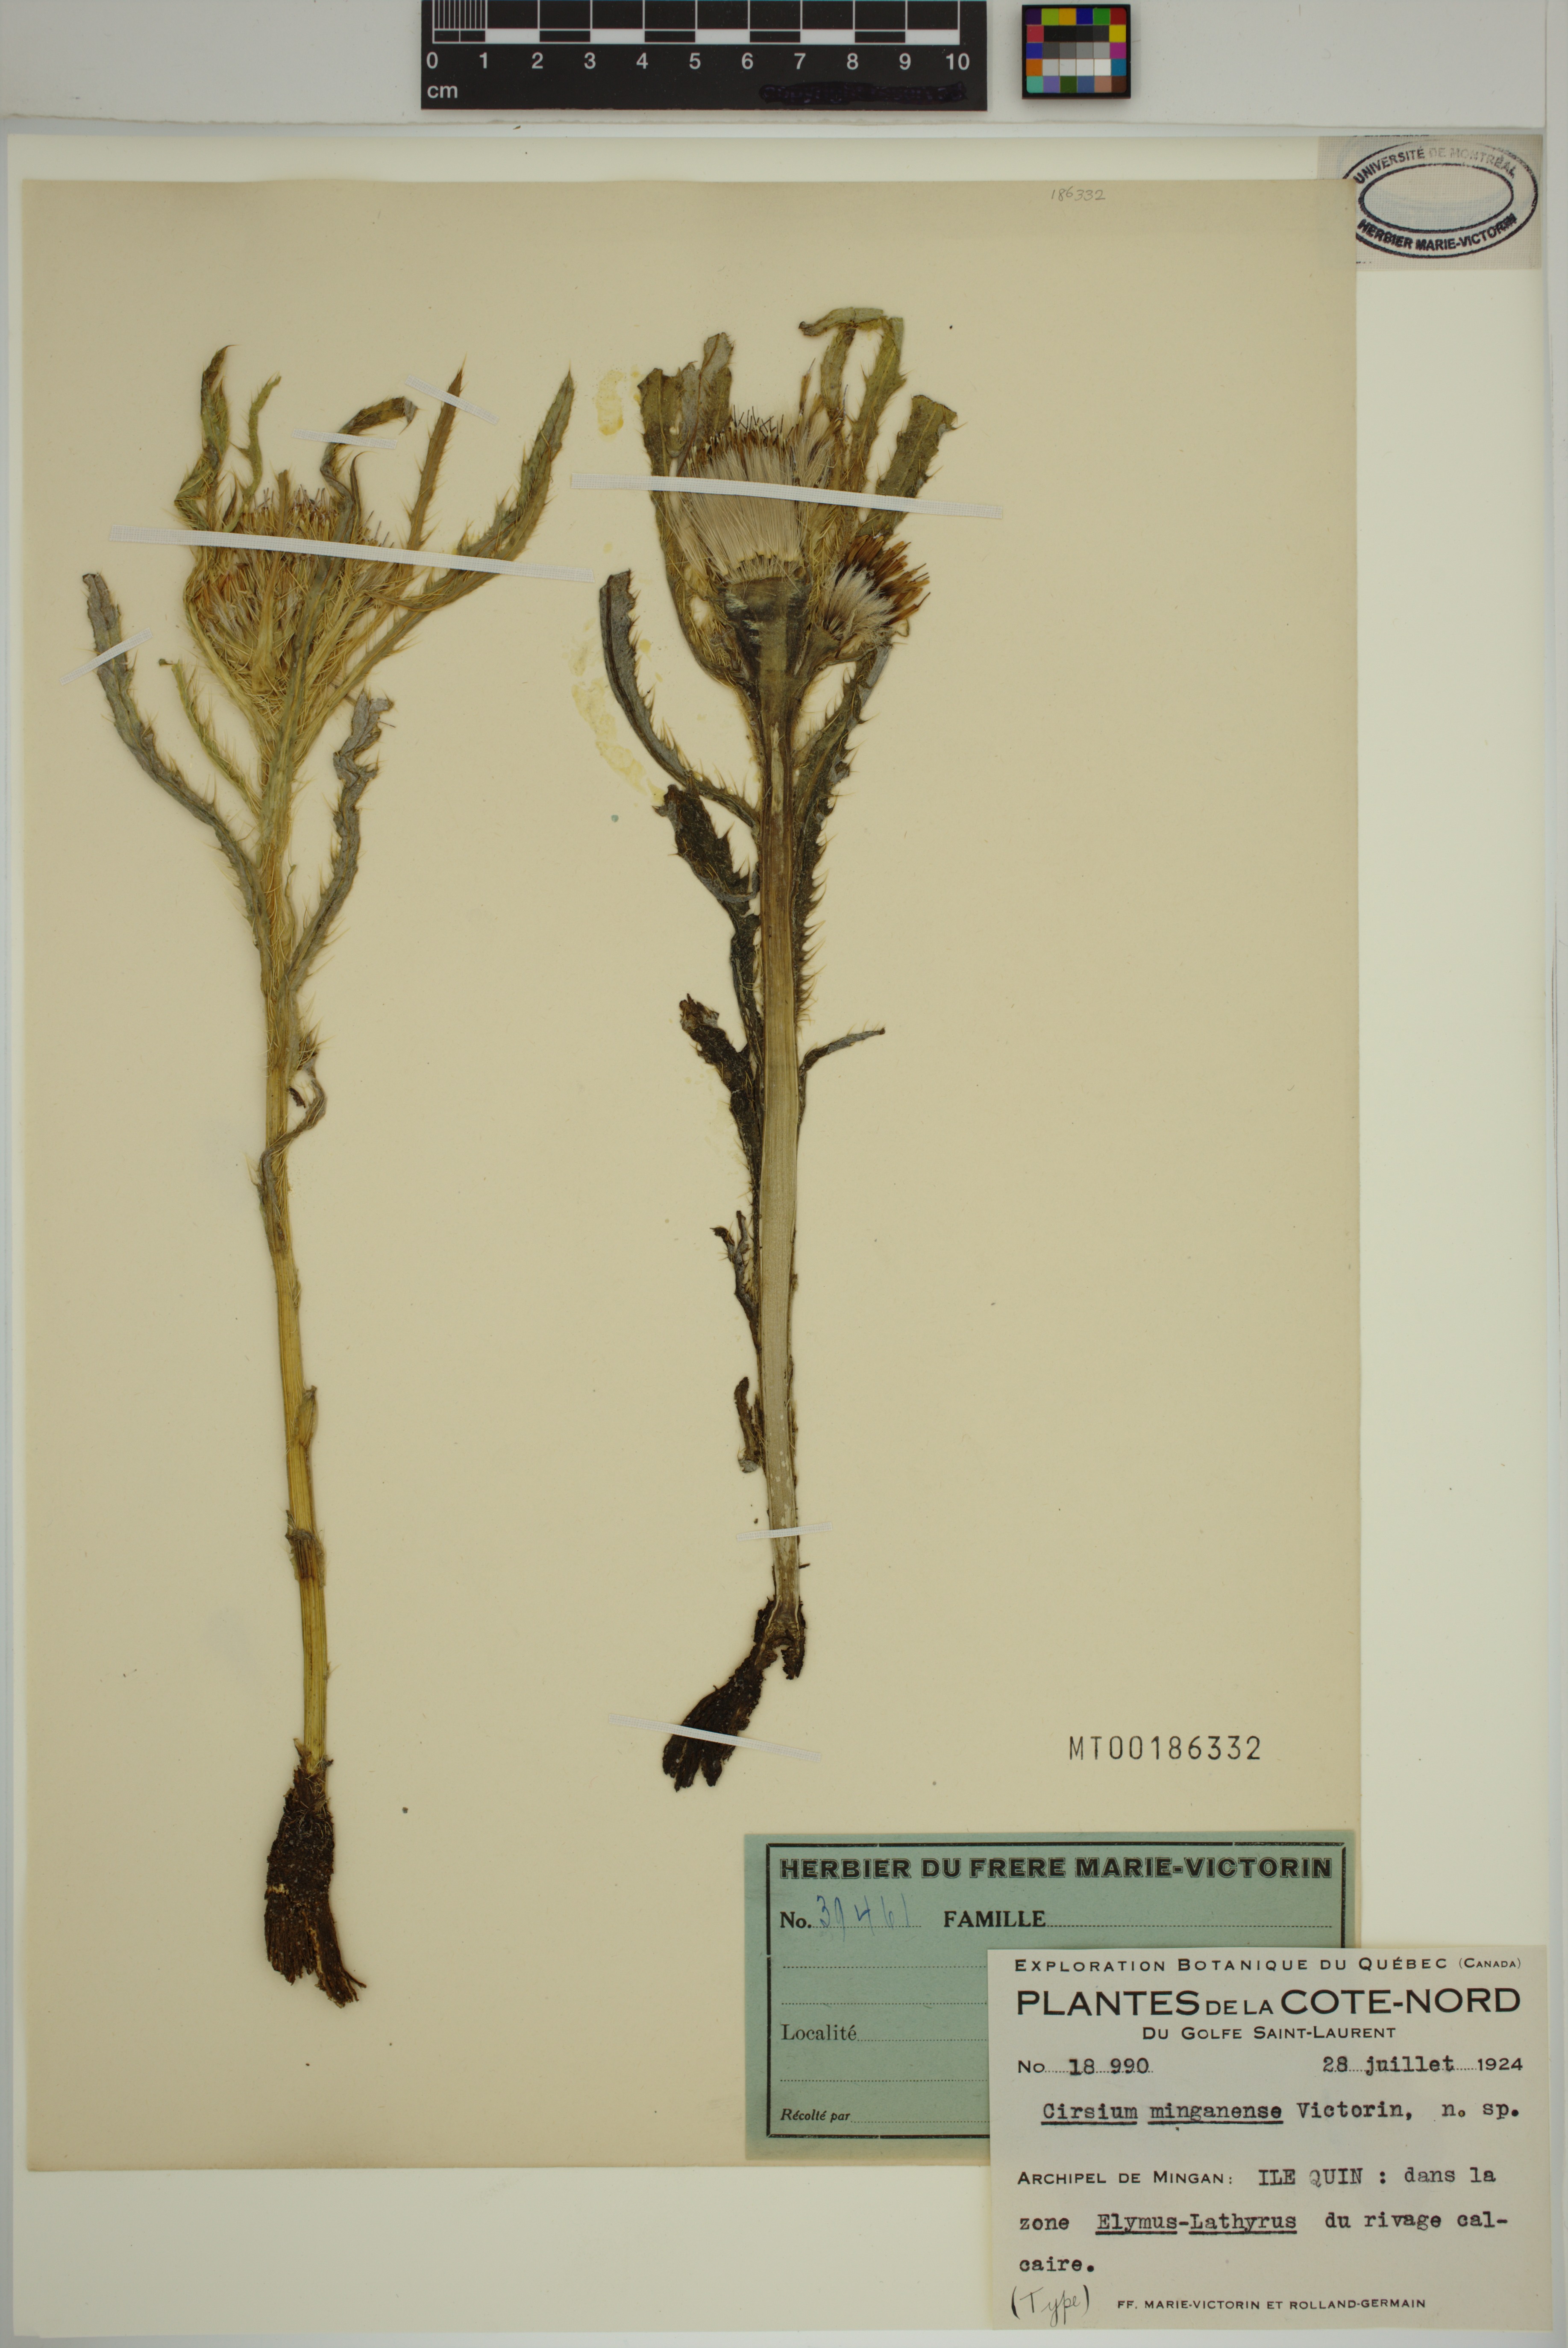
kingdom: Plantae
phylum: Tracheophyta
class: Magnoliopsida
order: Asterales
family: Asteraceae
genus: Cirsium
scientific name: Cirsium scariosum
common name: Meadow thistle
